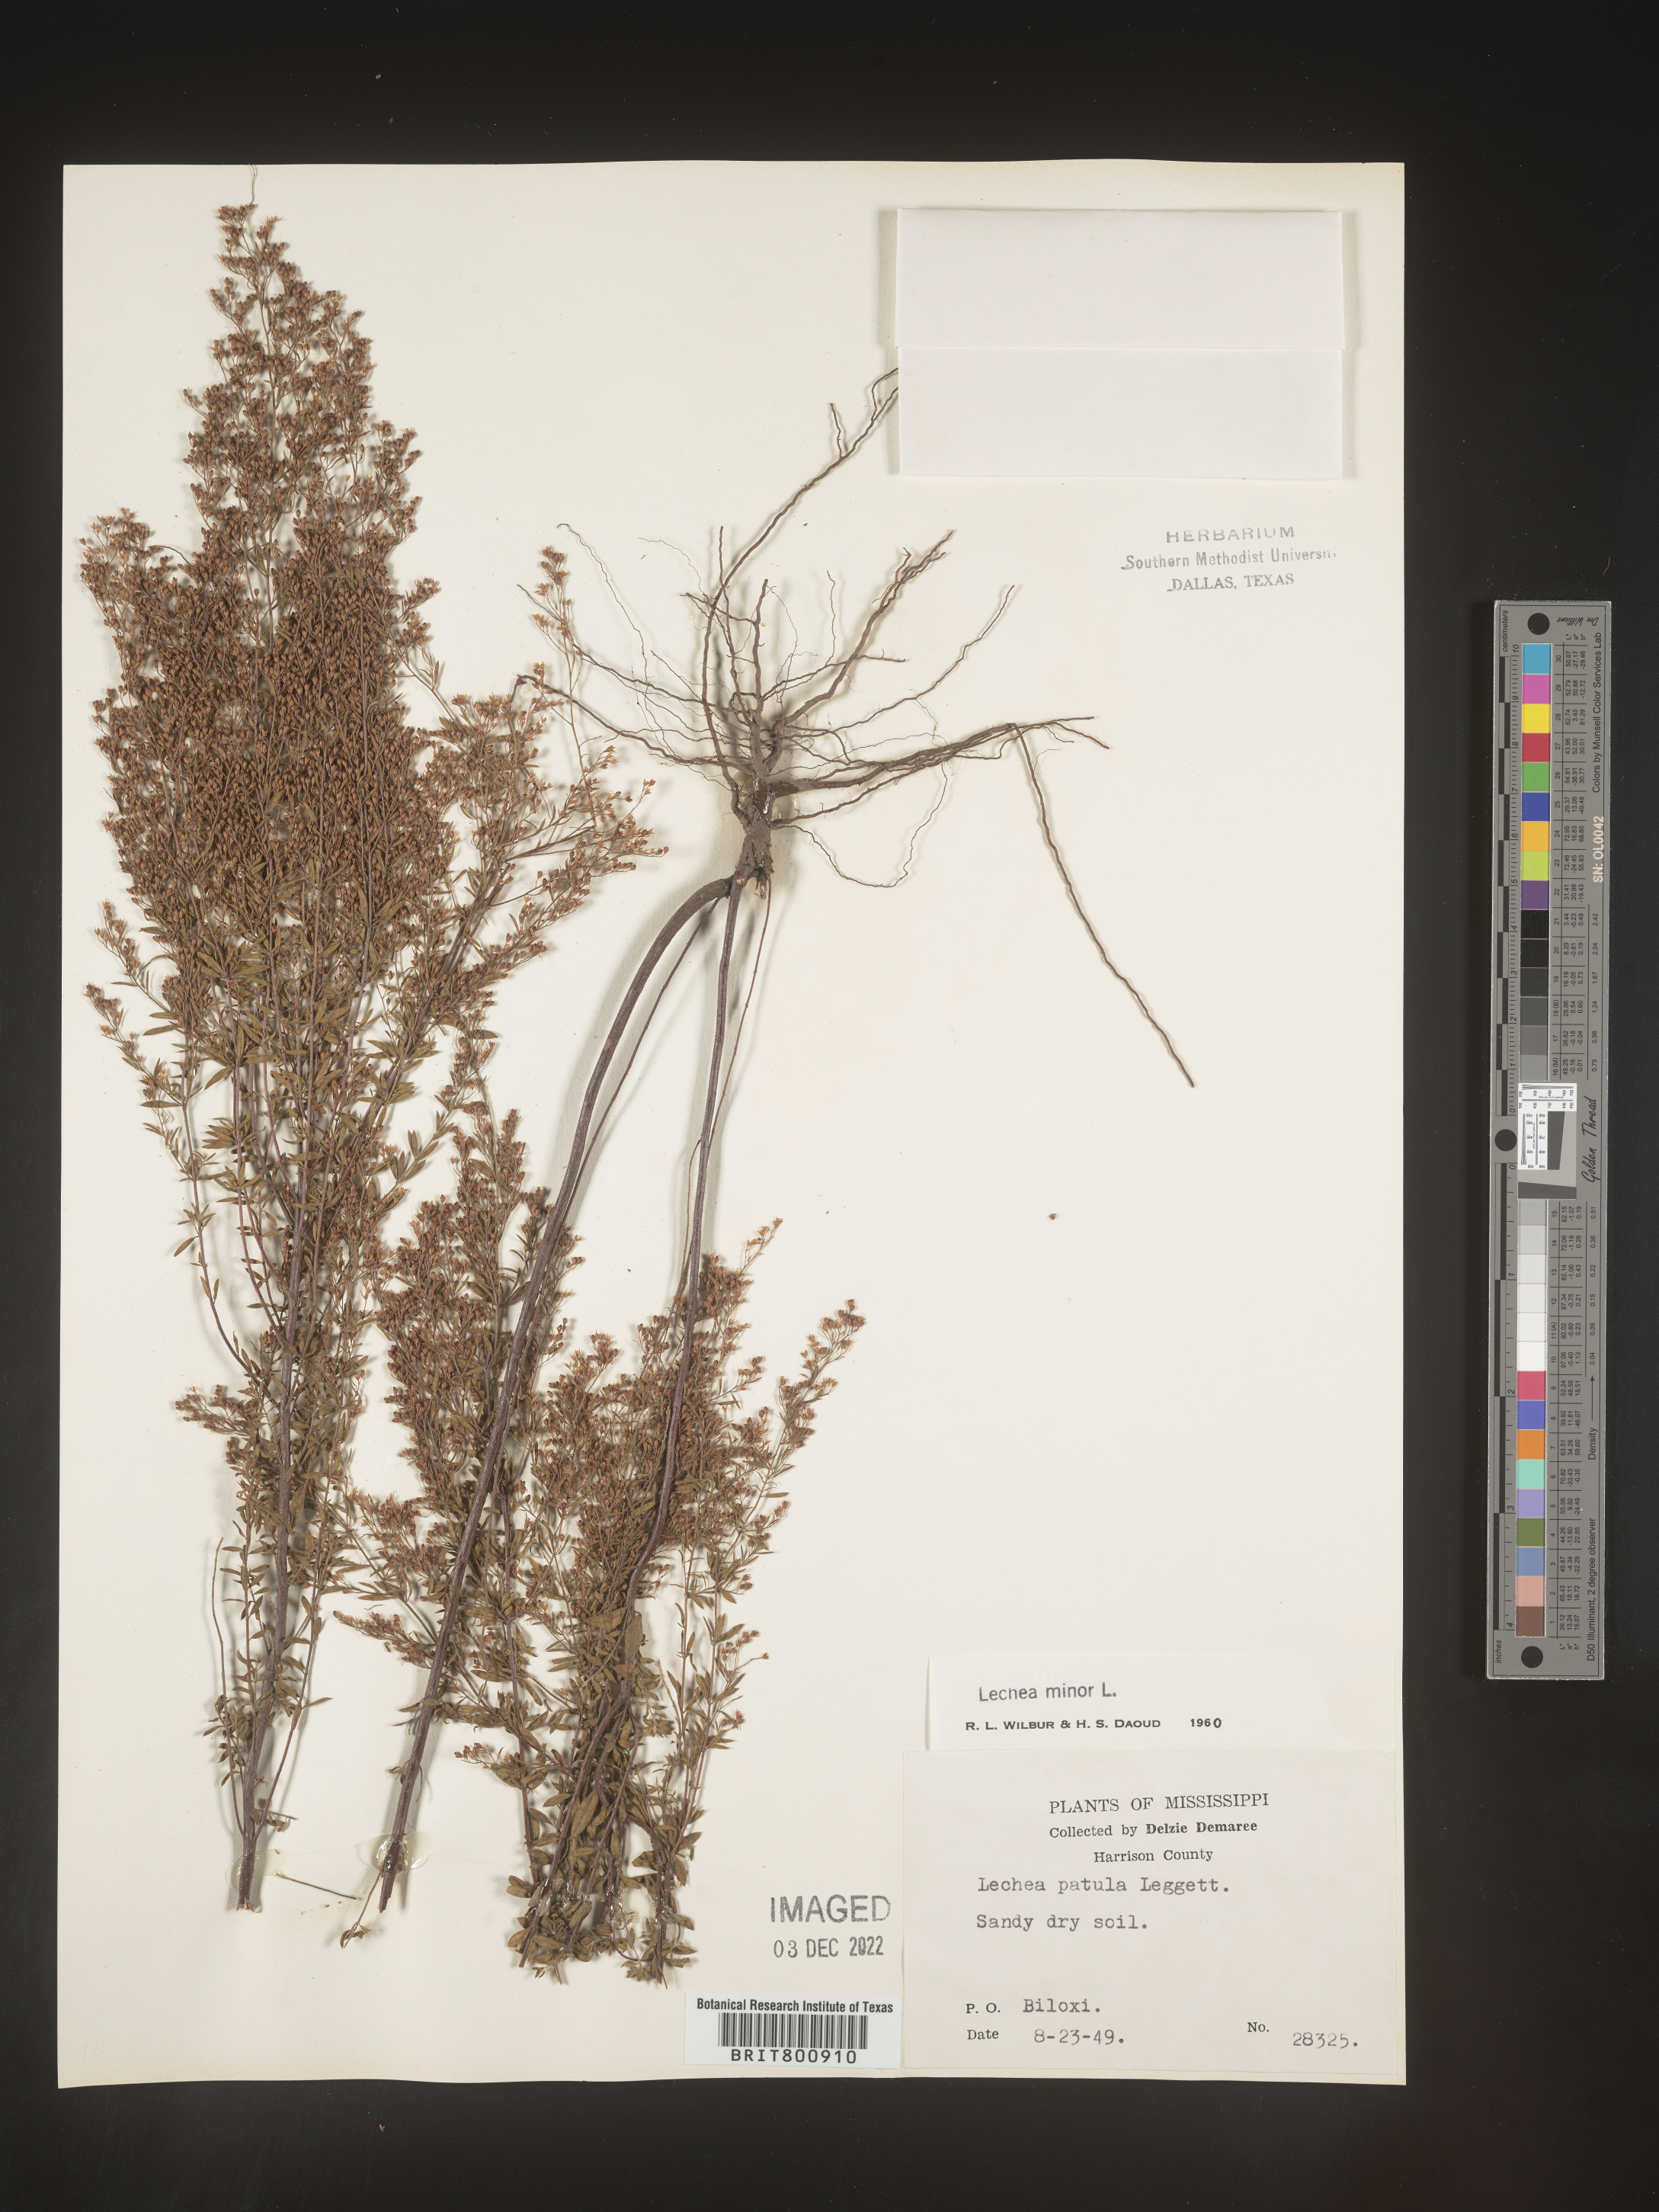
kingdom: Plantae
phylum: Tracheophyta
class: Magnoliopsida
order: Malvales
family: Cistaceae
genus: Lechea
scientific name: Lechea minor
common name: Thyme-leaf pinweed
